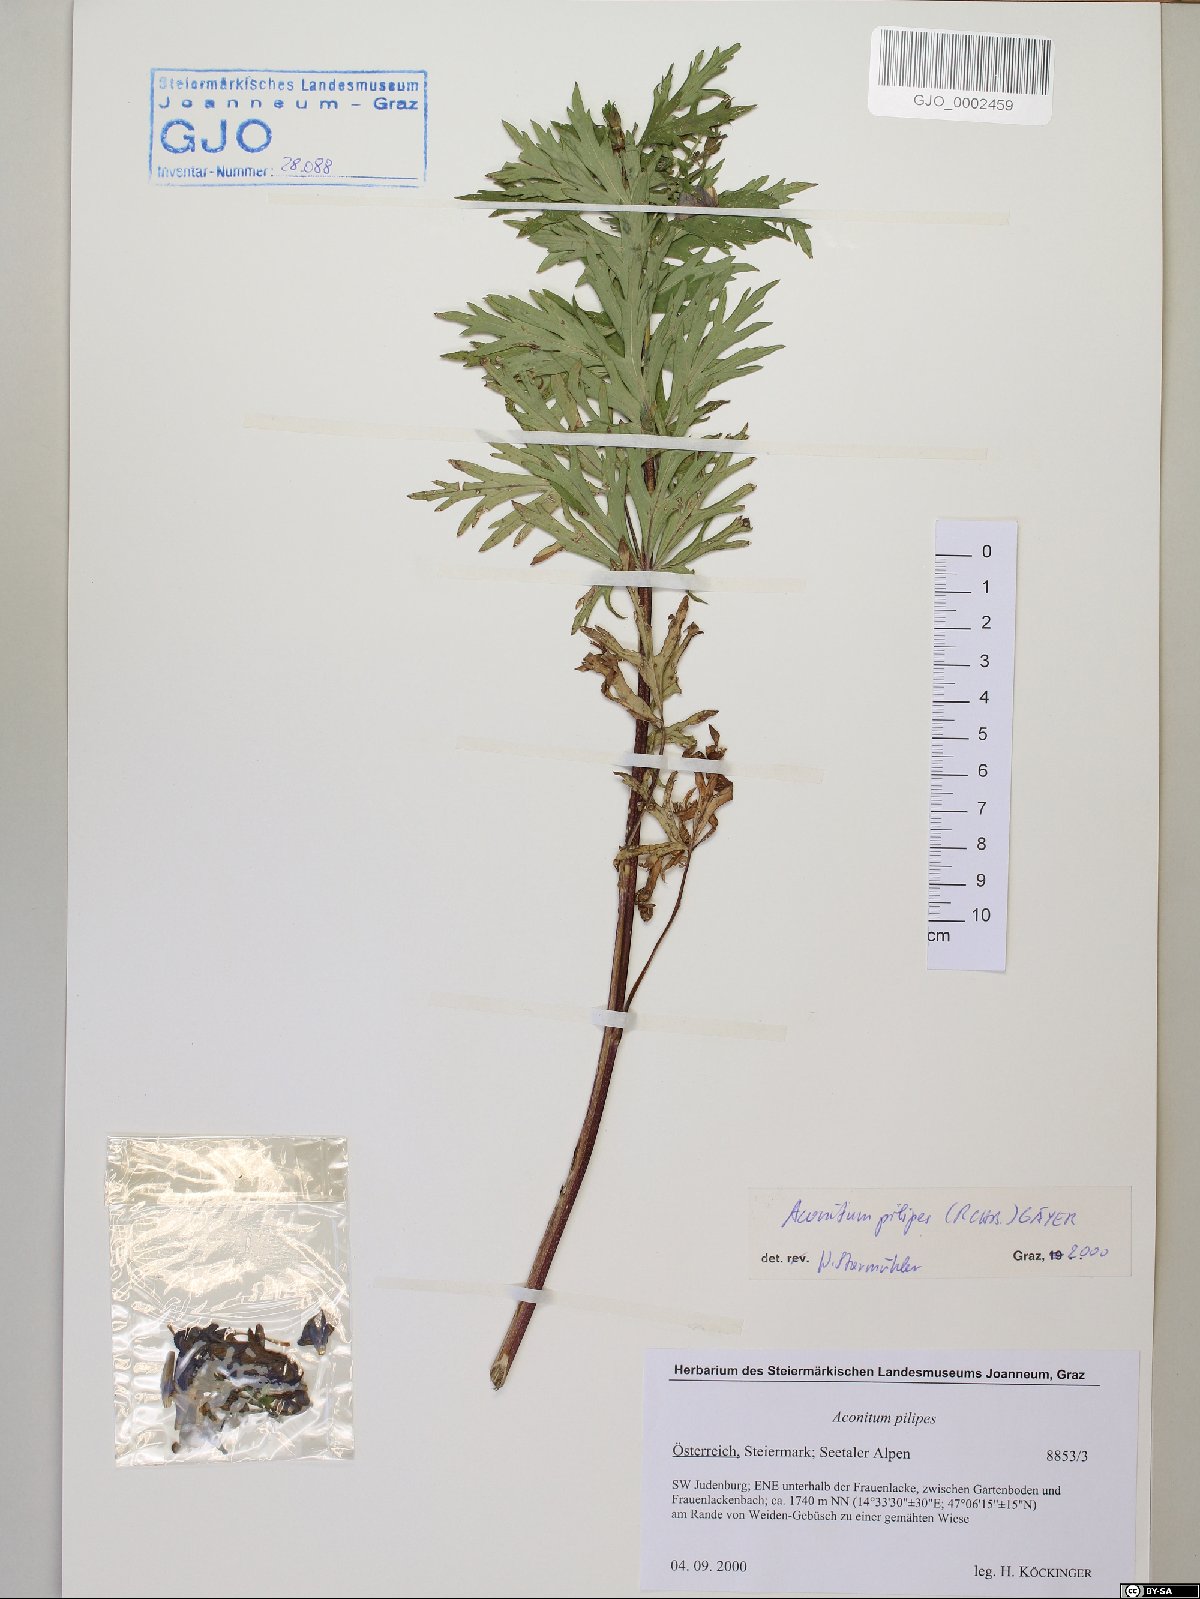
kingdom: Plantae
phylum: Tracheophyta
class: Magnoliopsida
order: Ranunculales
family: Ranunculaceae
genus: Aconitum
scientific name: Aconitum pilipes
